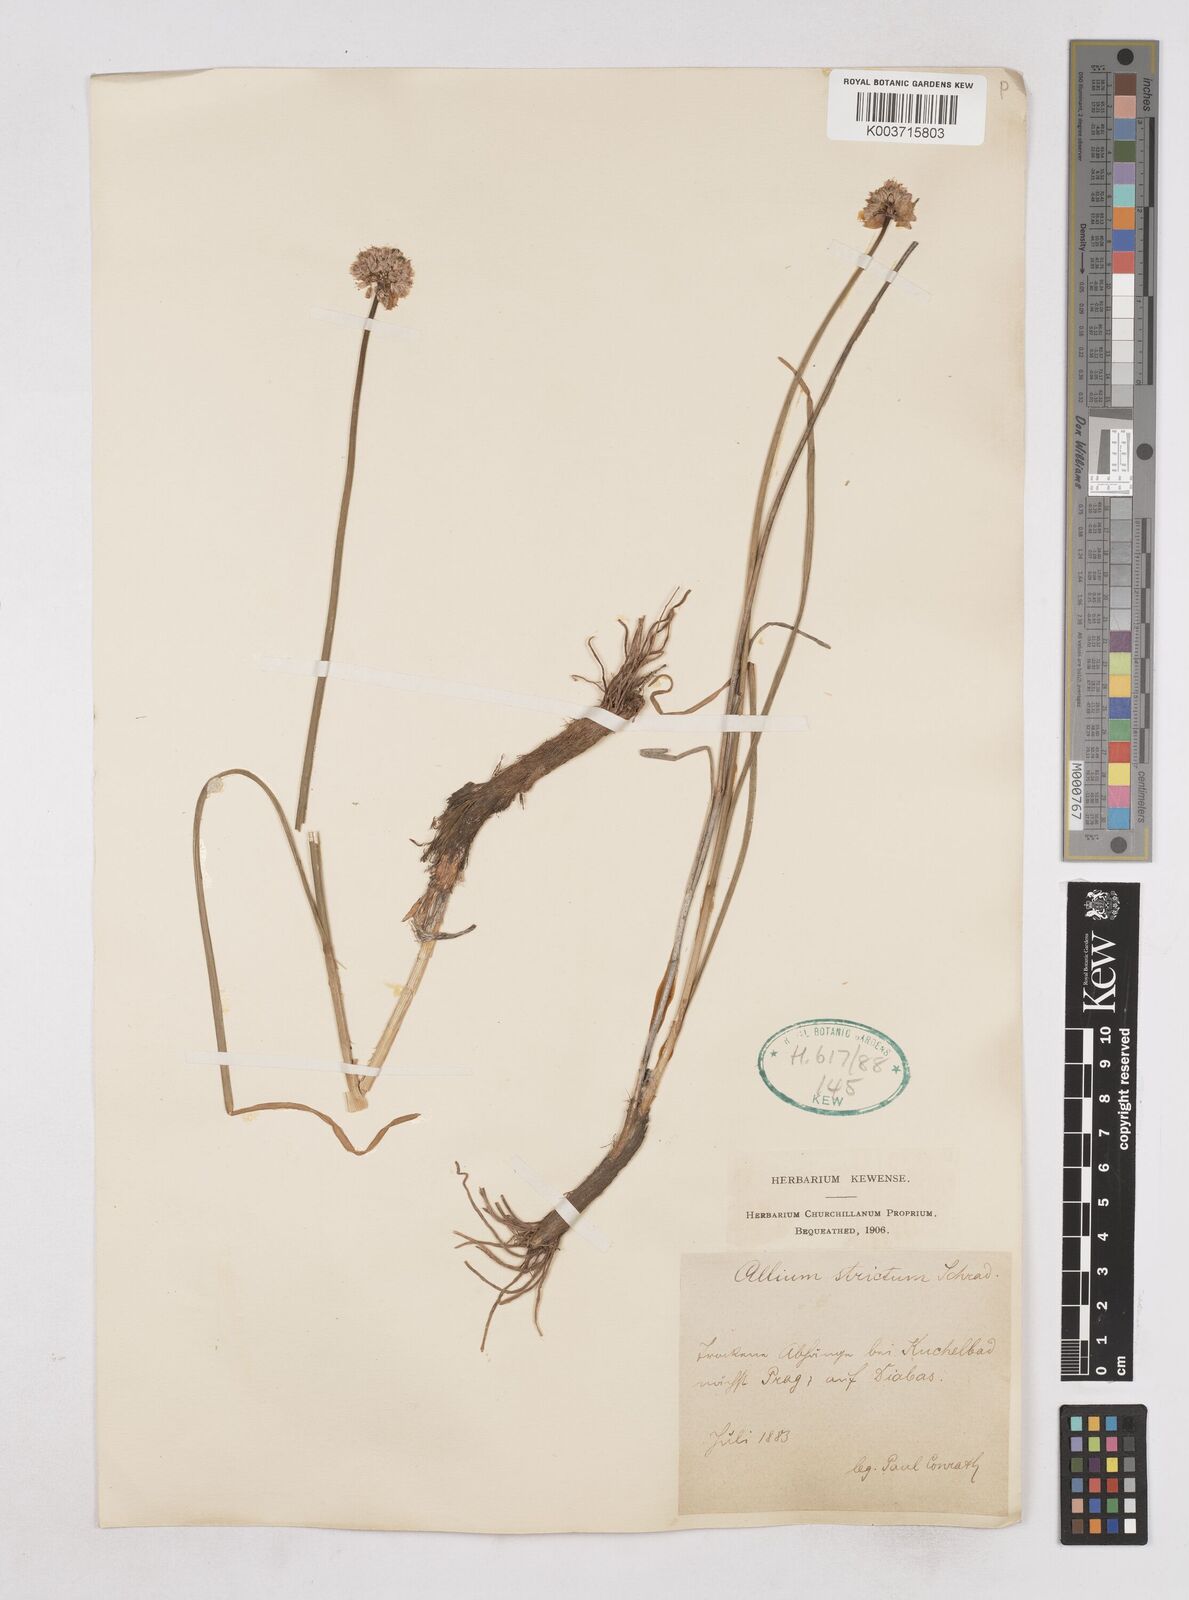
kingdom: Plantae
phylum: Tracheophyta
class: Liliopsida
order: Asparagales
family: Amaryllidaceae
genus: Allium
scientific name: Allium strictum
